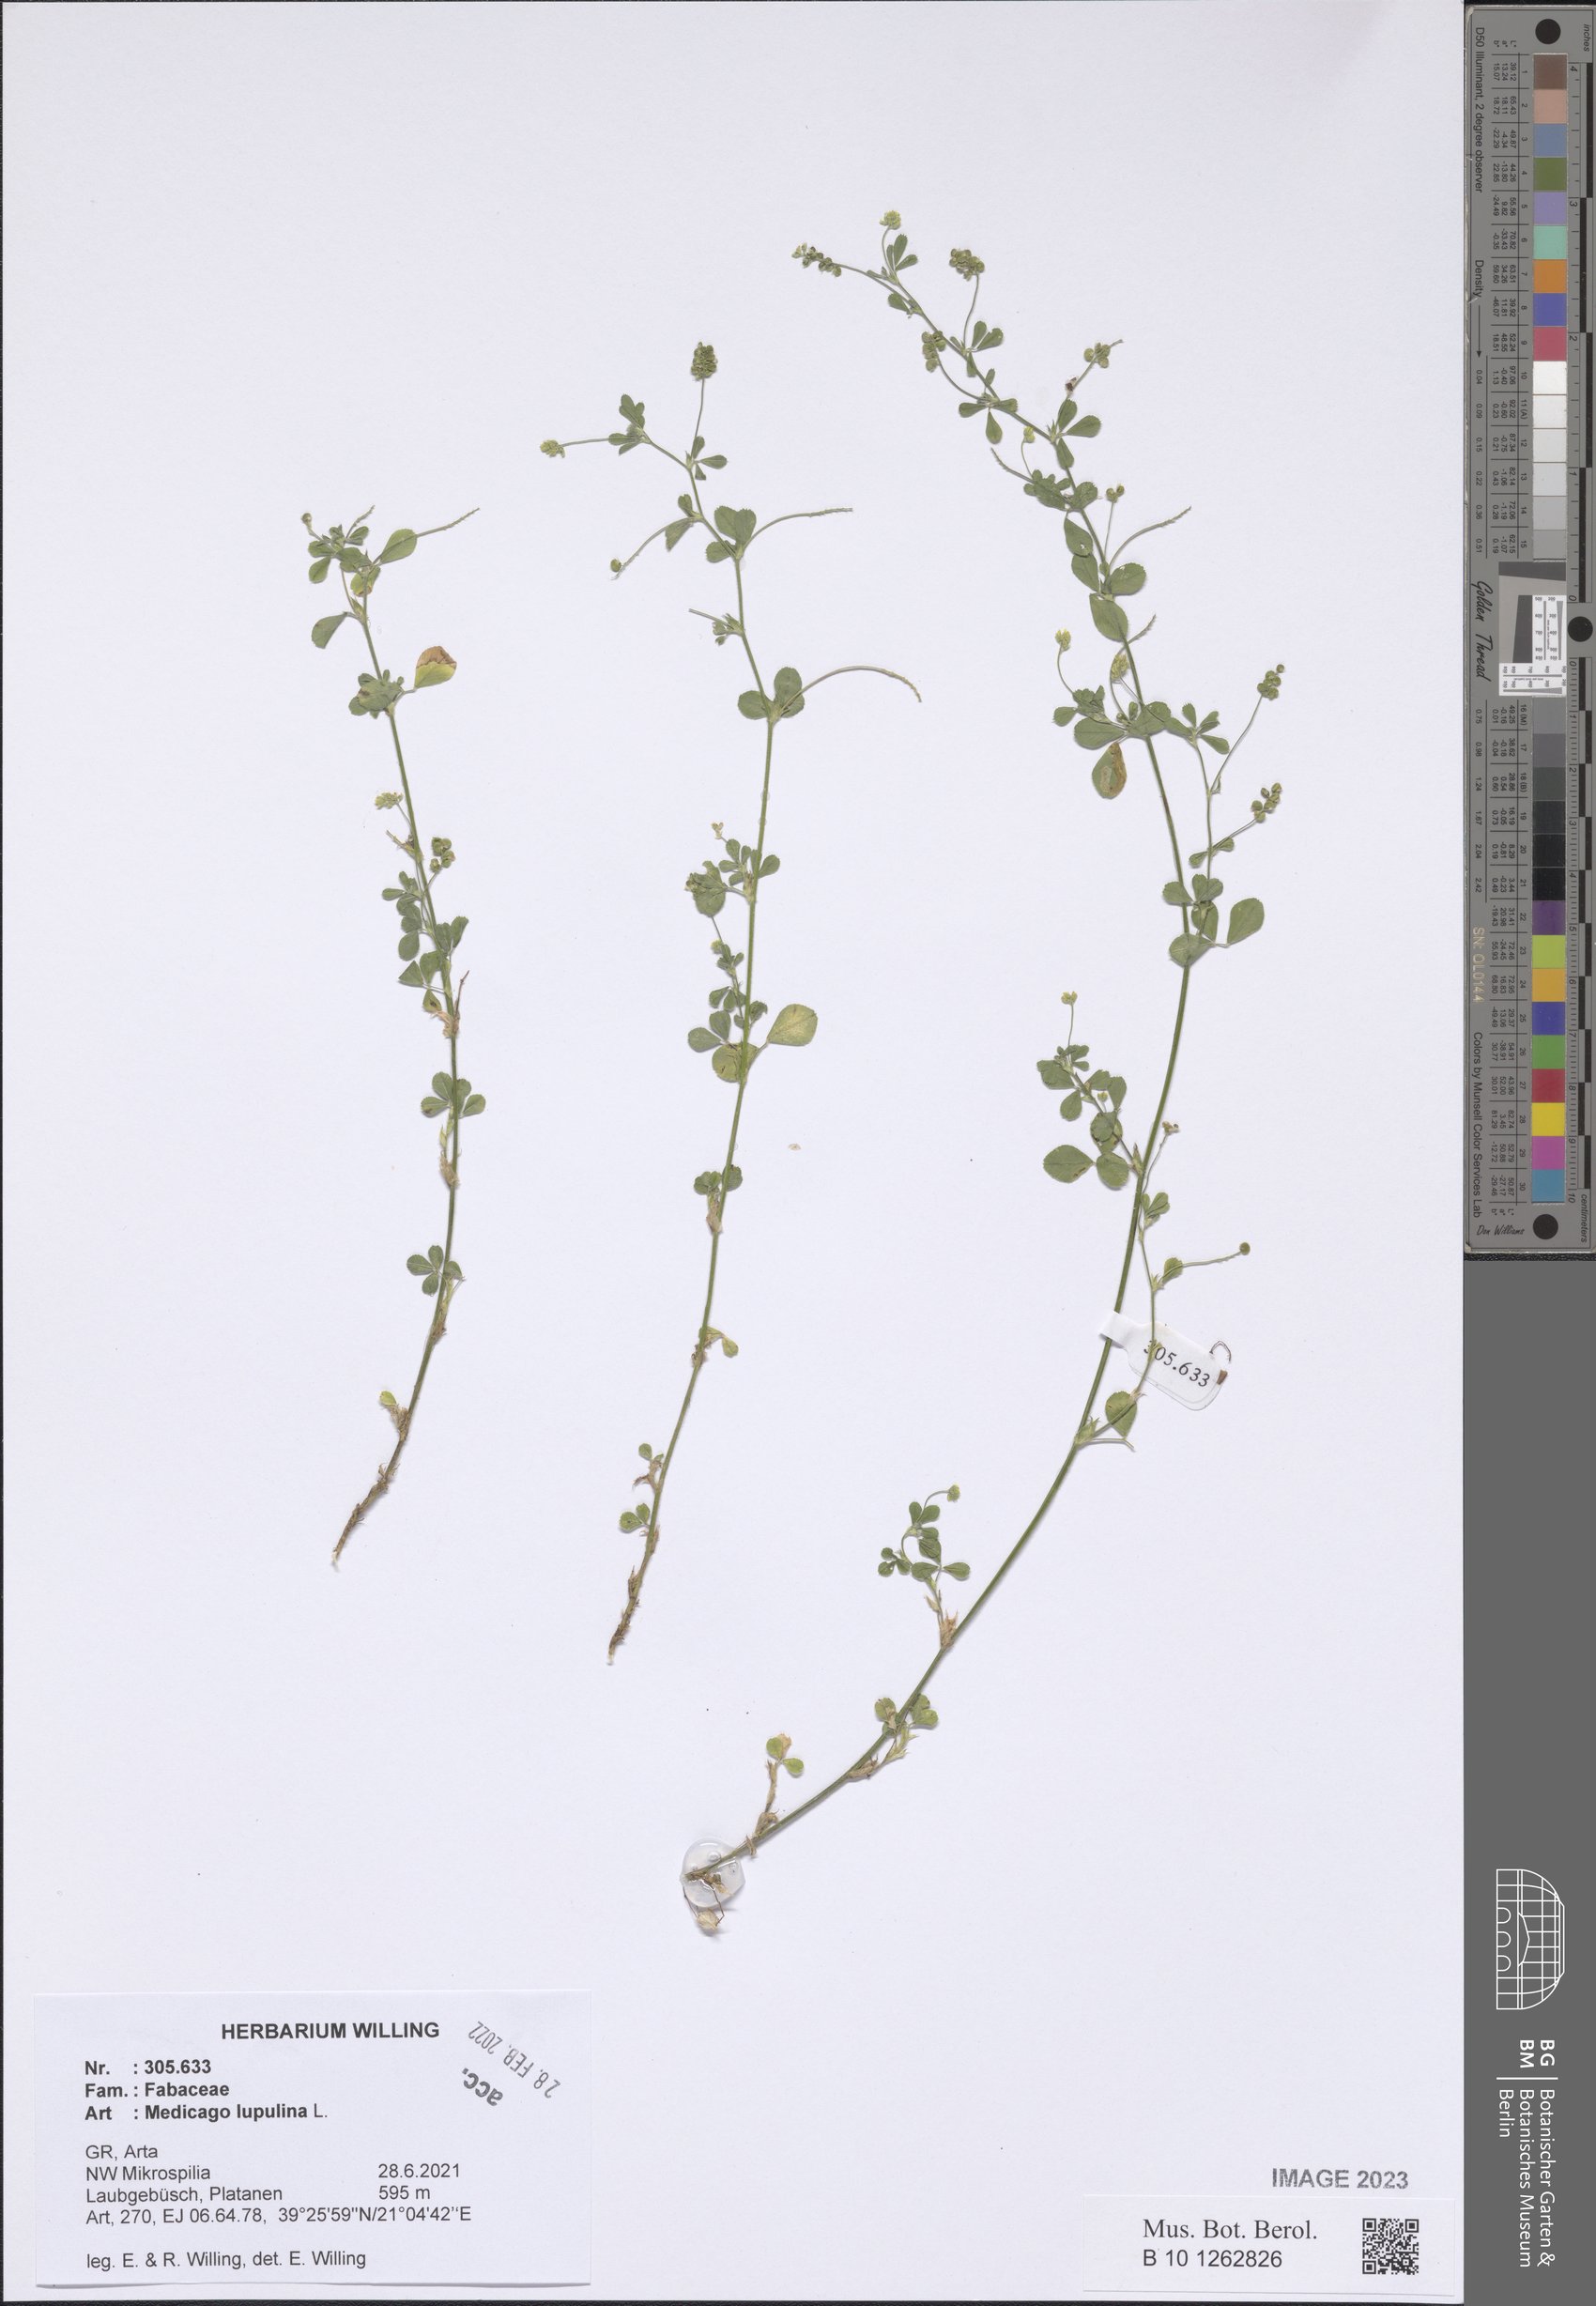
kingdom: Plantae
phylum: Tracheophyta
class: Magnoliopsida
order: Fabales
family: Fabaceae
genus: Medicago
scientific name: Medicago lupulina
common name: Black medick
